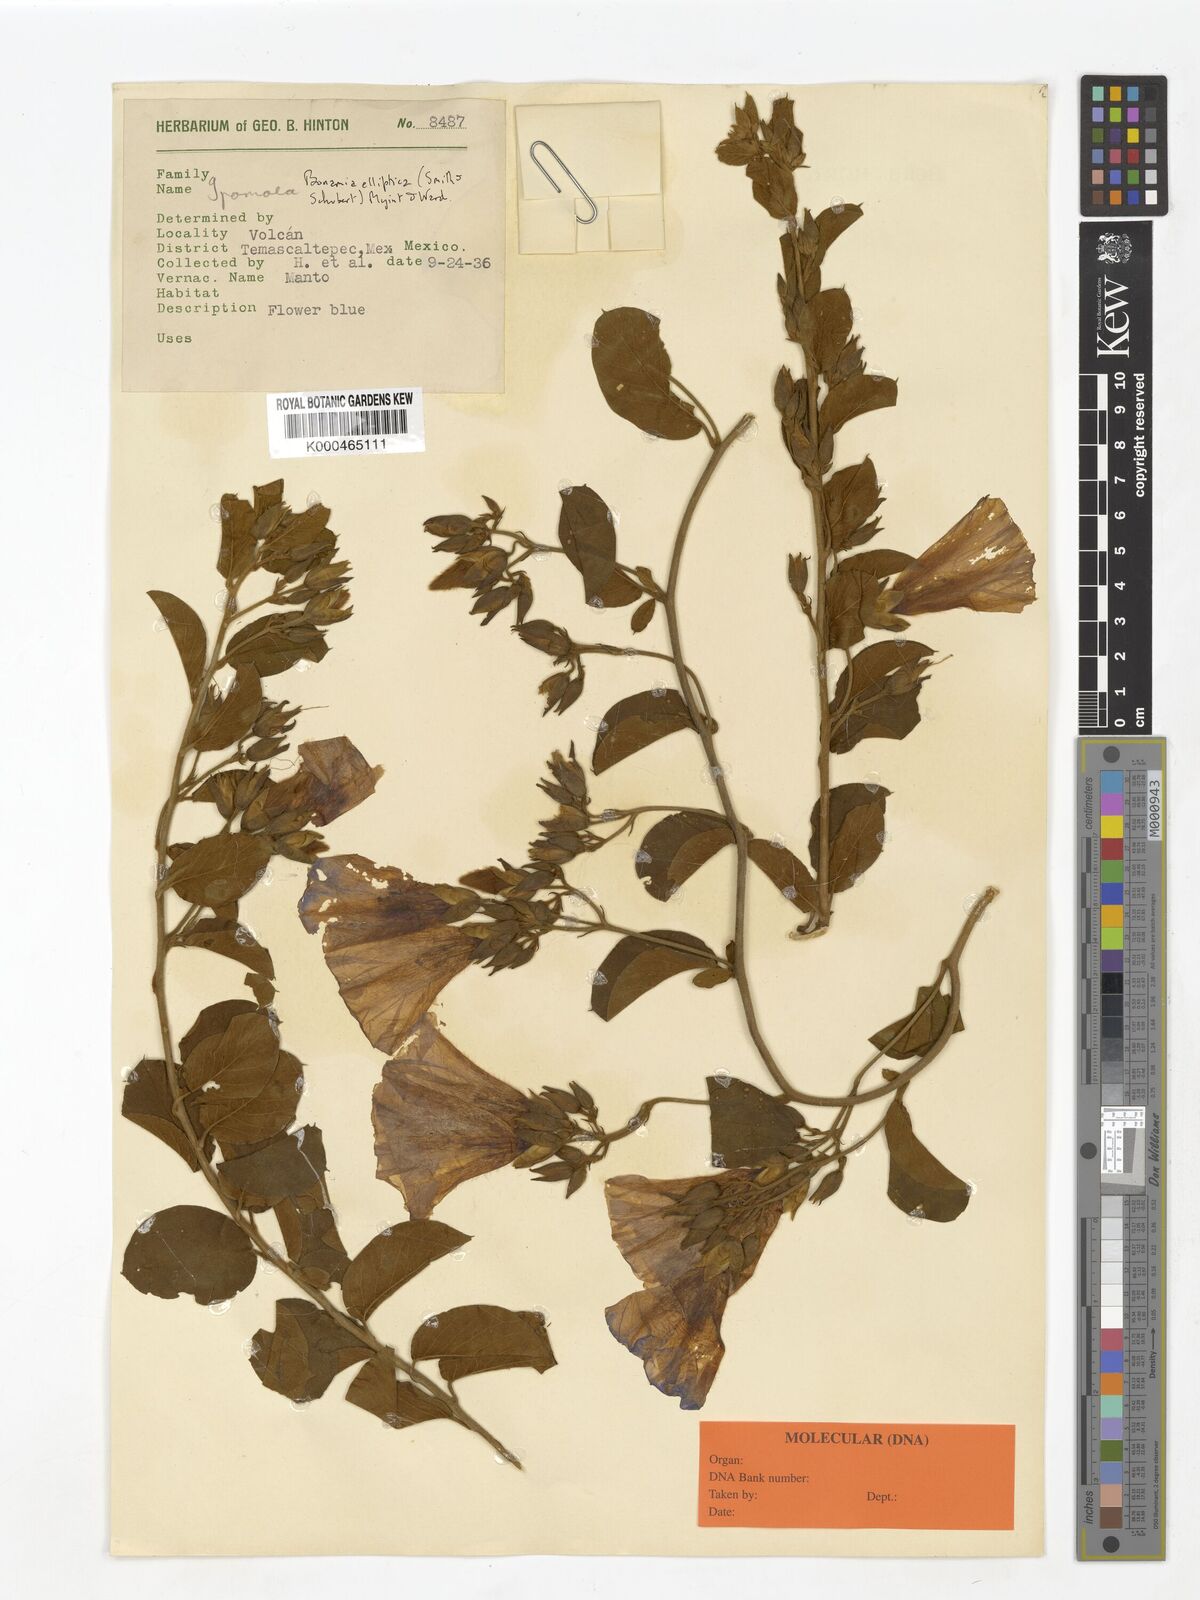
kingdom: Plantae
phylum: Tracheophyta
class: Magnoliopsida
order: Solanales
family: Convolvulaceae
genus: Bonamia
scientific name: Bonamia elliptica
